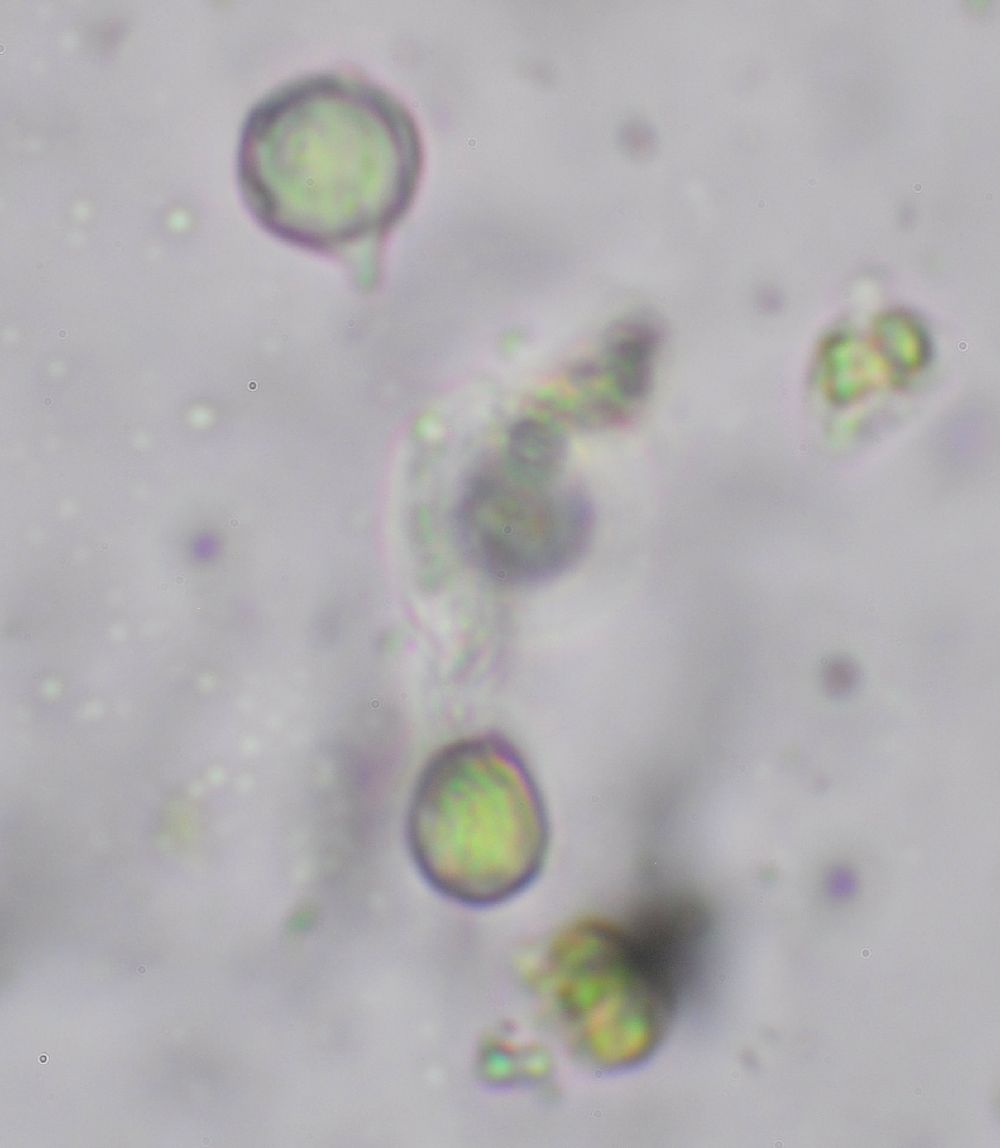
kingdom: Fungi
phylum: Basidiomycota
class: Agaricomycetes
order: Agaricales
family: Clavariaceae
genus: Clavulinopsis
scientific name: Clavulinopsis helvola
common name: orangegul køllesvamp
